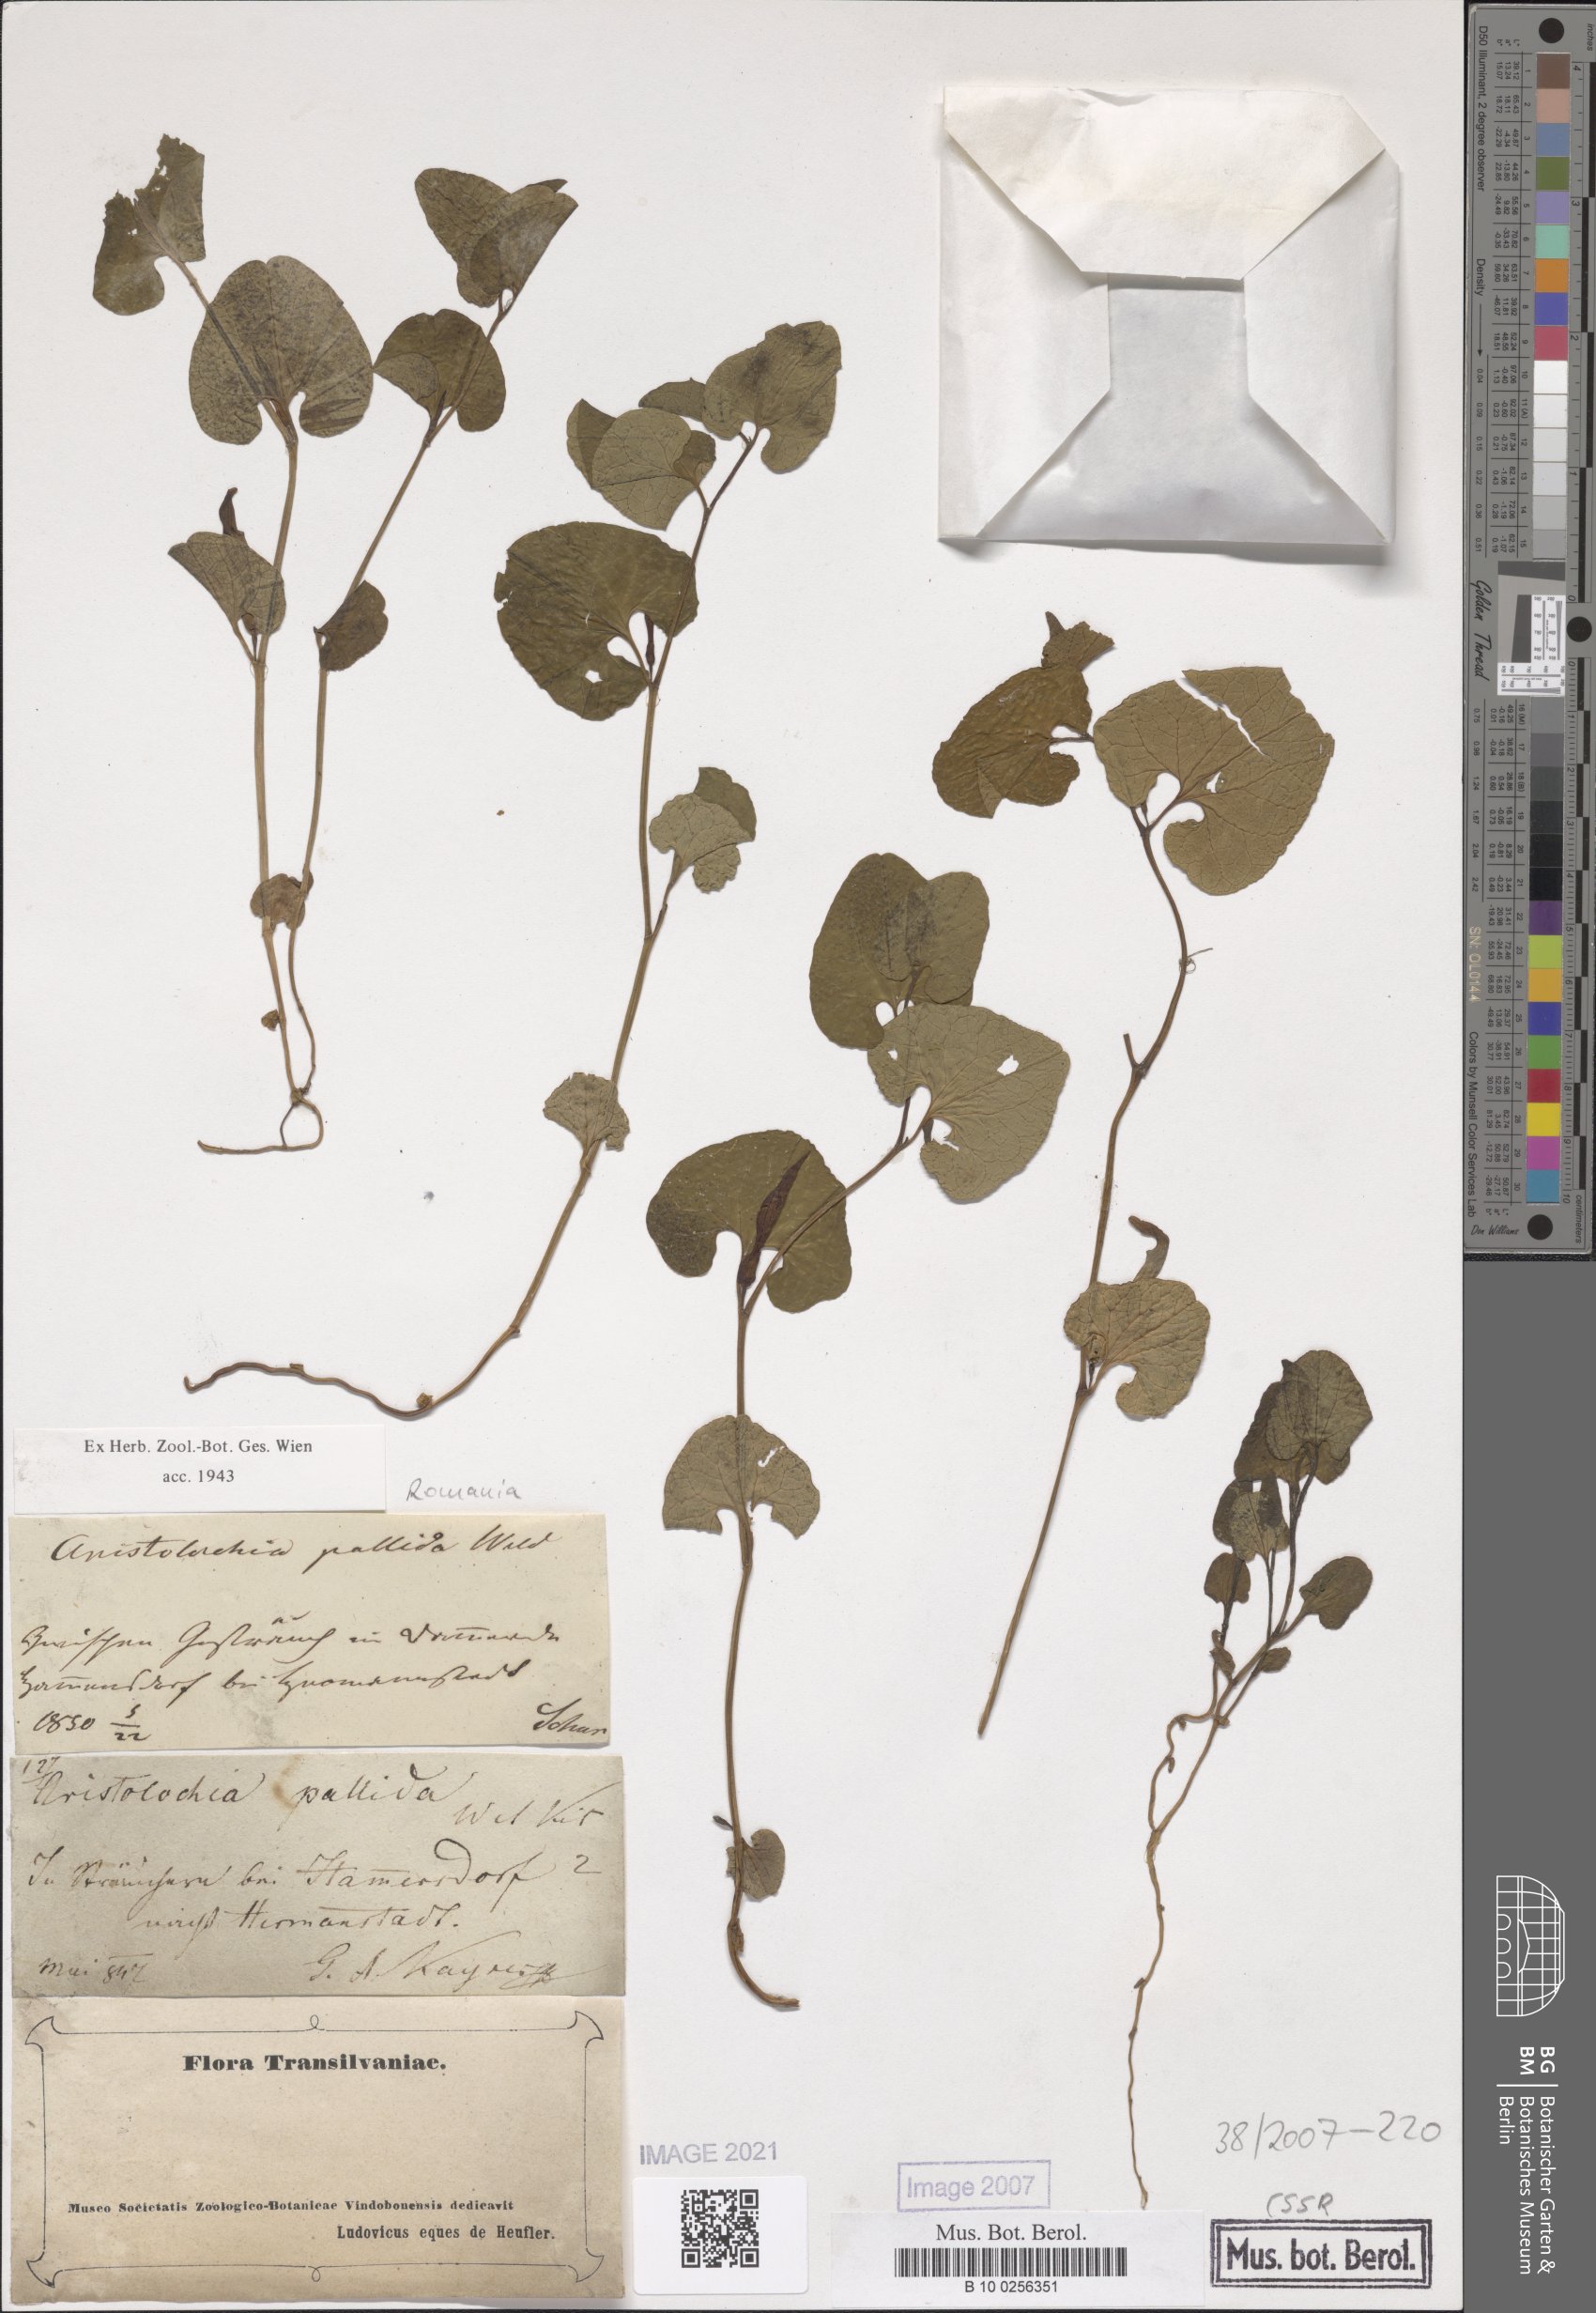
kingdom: Plantae
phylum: Tracheophyta
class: Magnoliopsida
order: Piperales
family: Aristolochiaceae
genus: Aristolochia
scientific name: Aristolochia pallida
